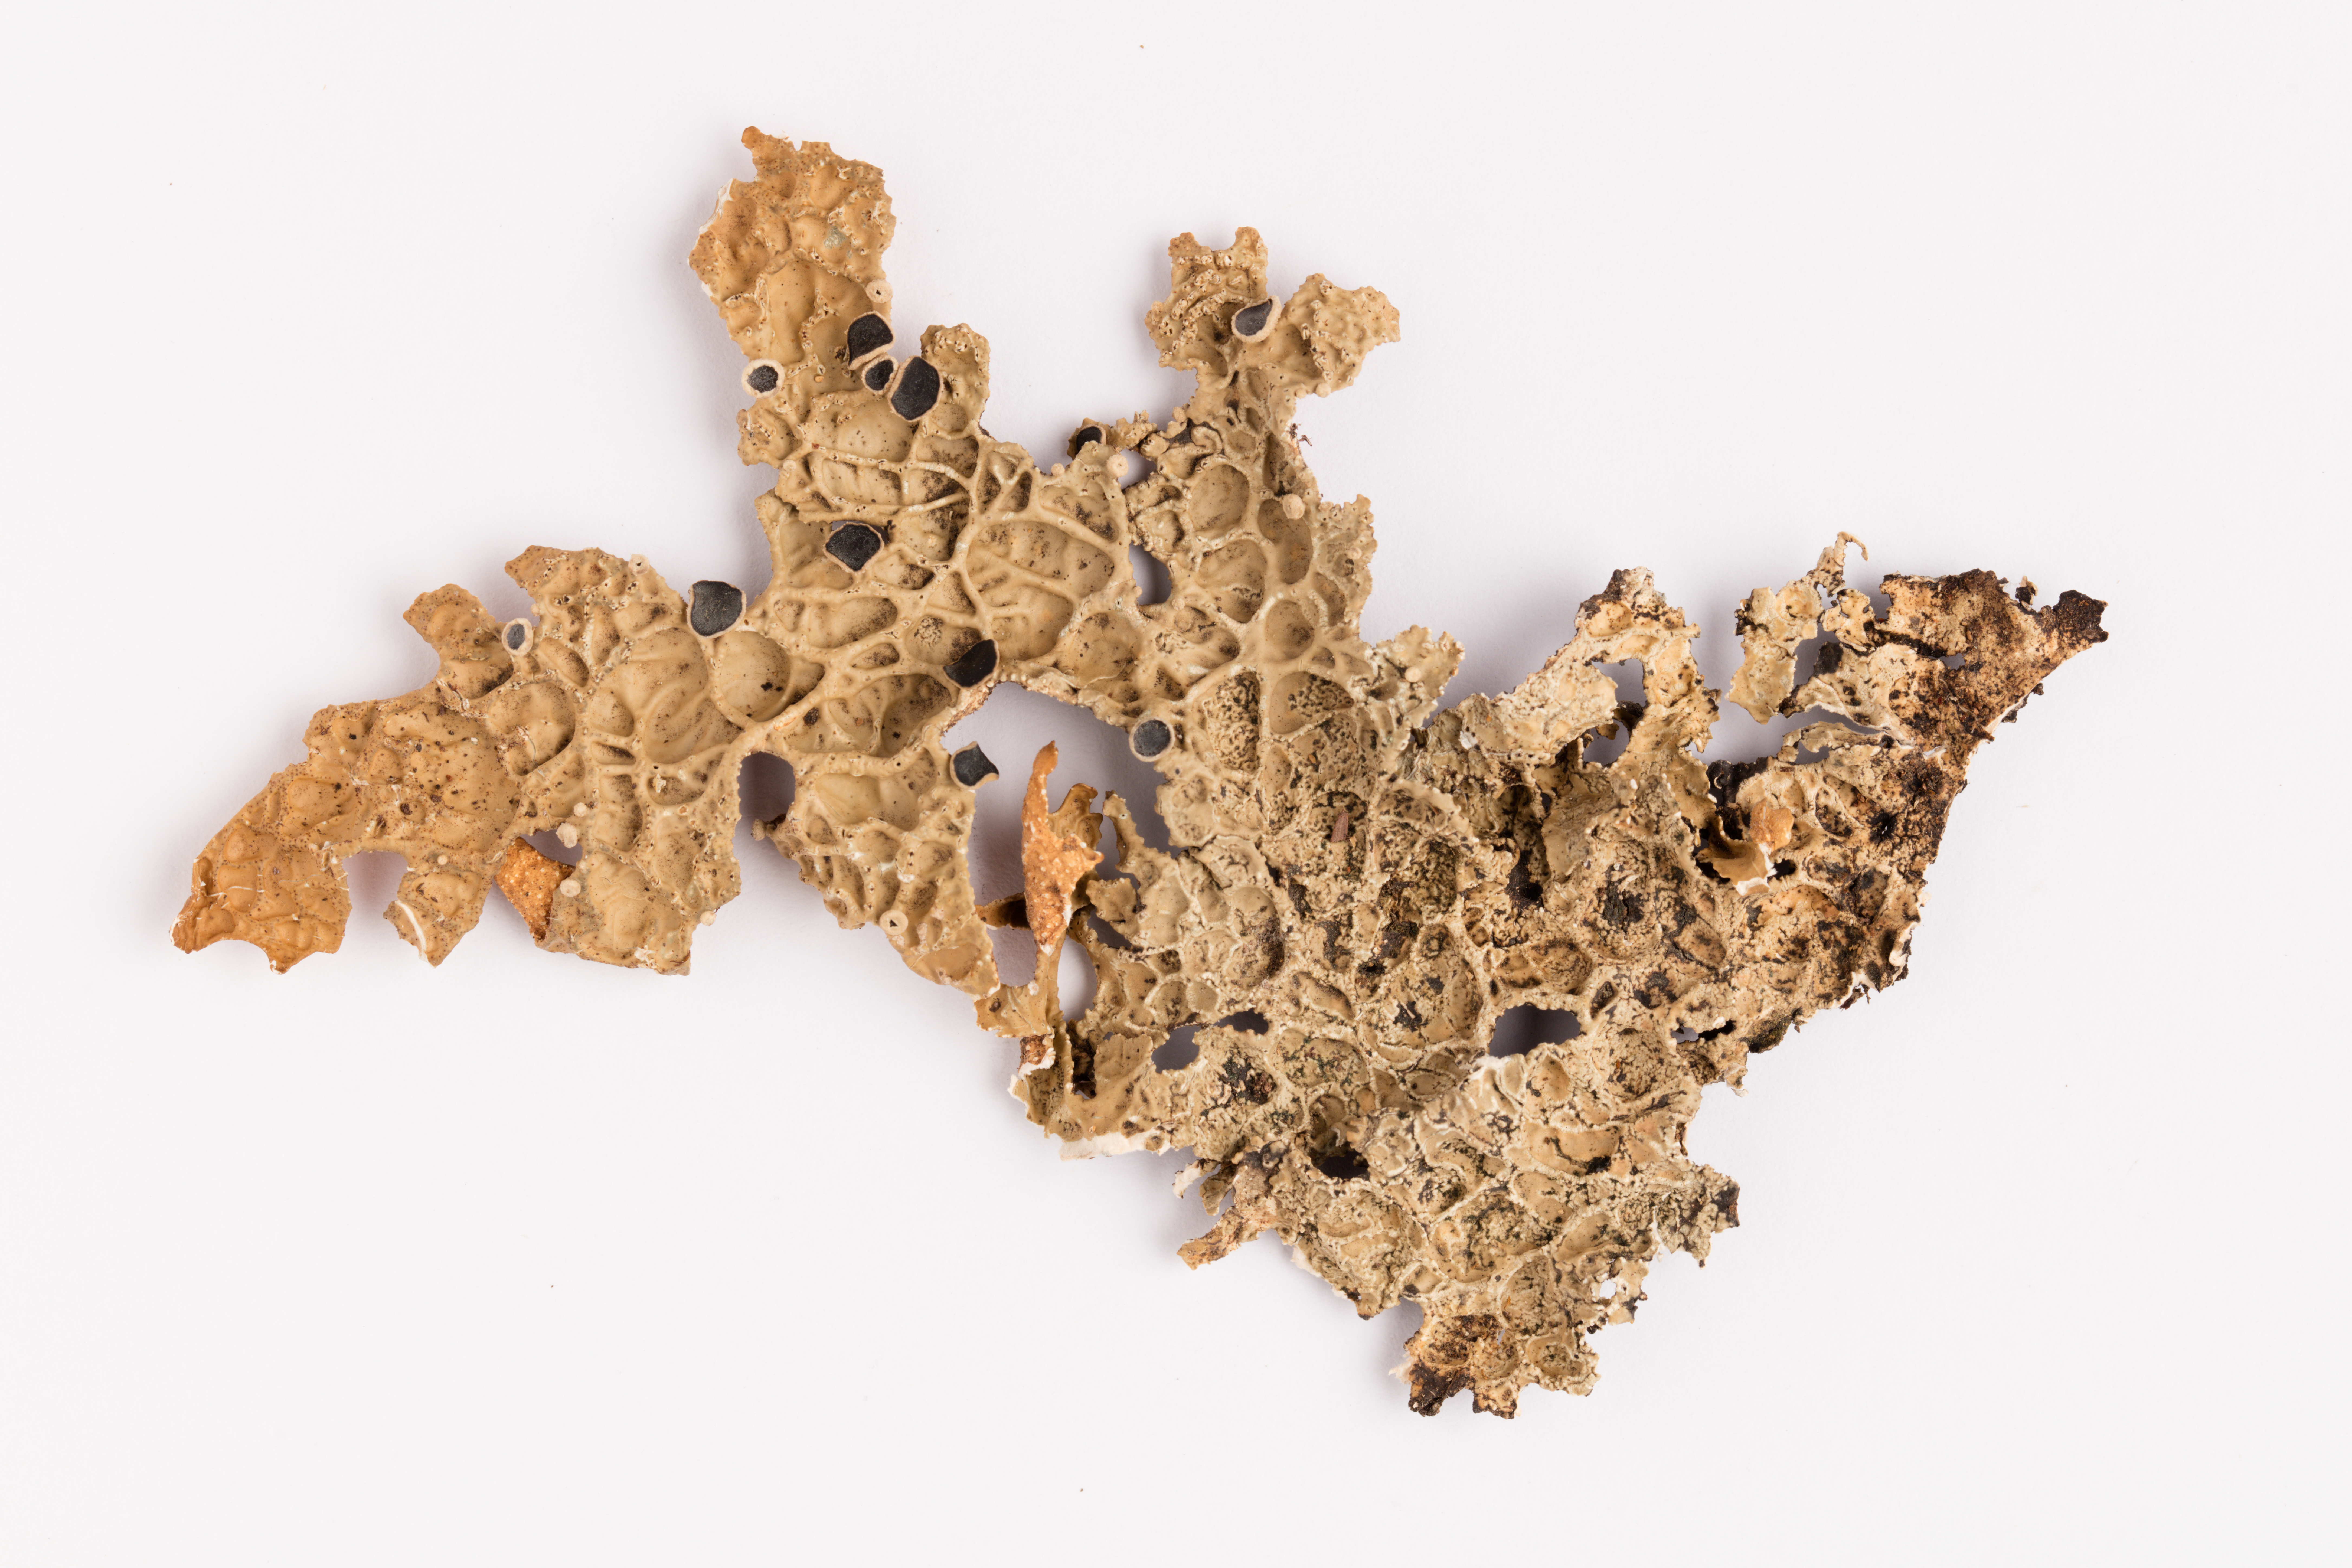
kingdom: Fungi
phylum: Ascomycota
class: Lecanoromycetes
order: Peltigerales
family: Lobariaceae
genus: Pseudocyphellaria
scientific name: Pseudocyphellaria durietzii
